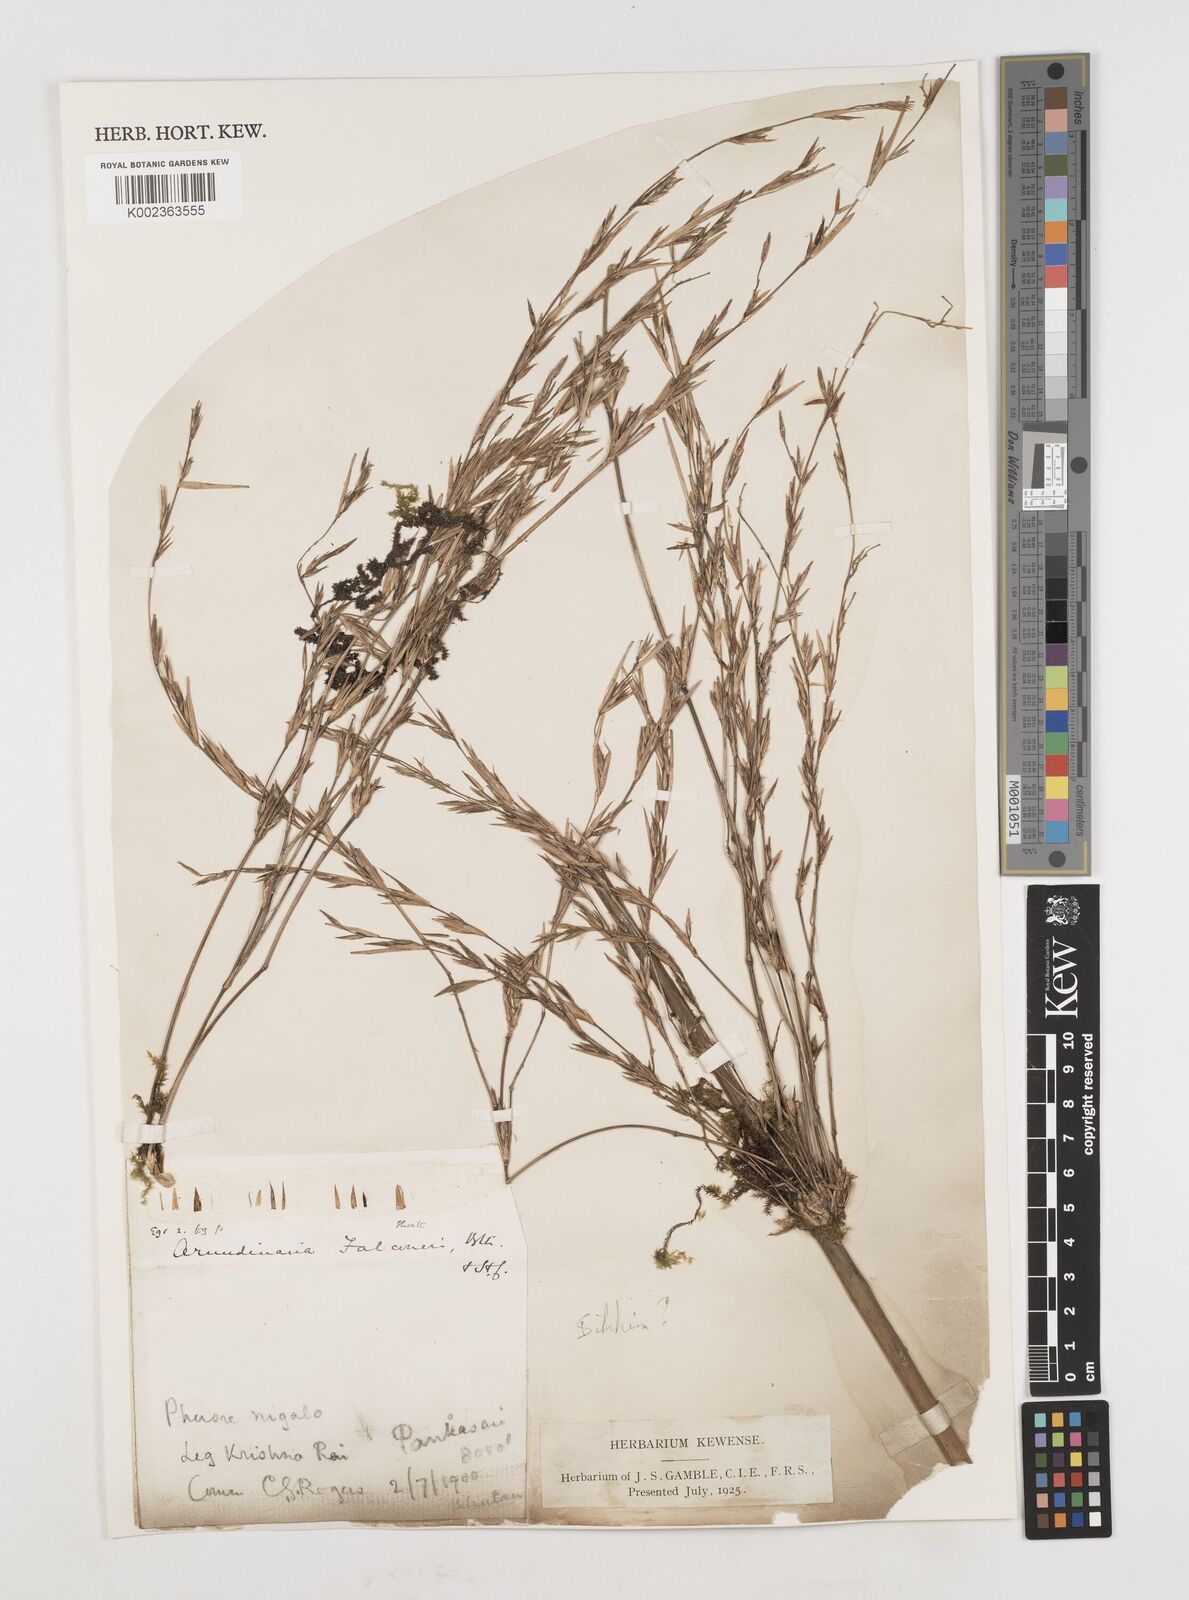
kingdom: Plantae
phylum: Tracheophyta
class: Liliopsida
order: Poales
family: Poaceae
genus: Himalayacalamus
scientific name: Himalayacalamus falconeri
